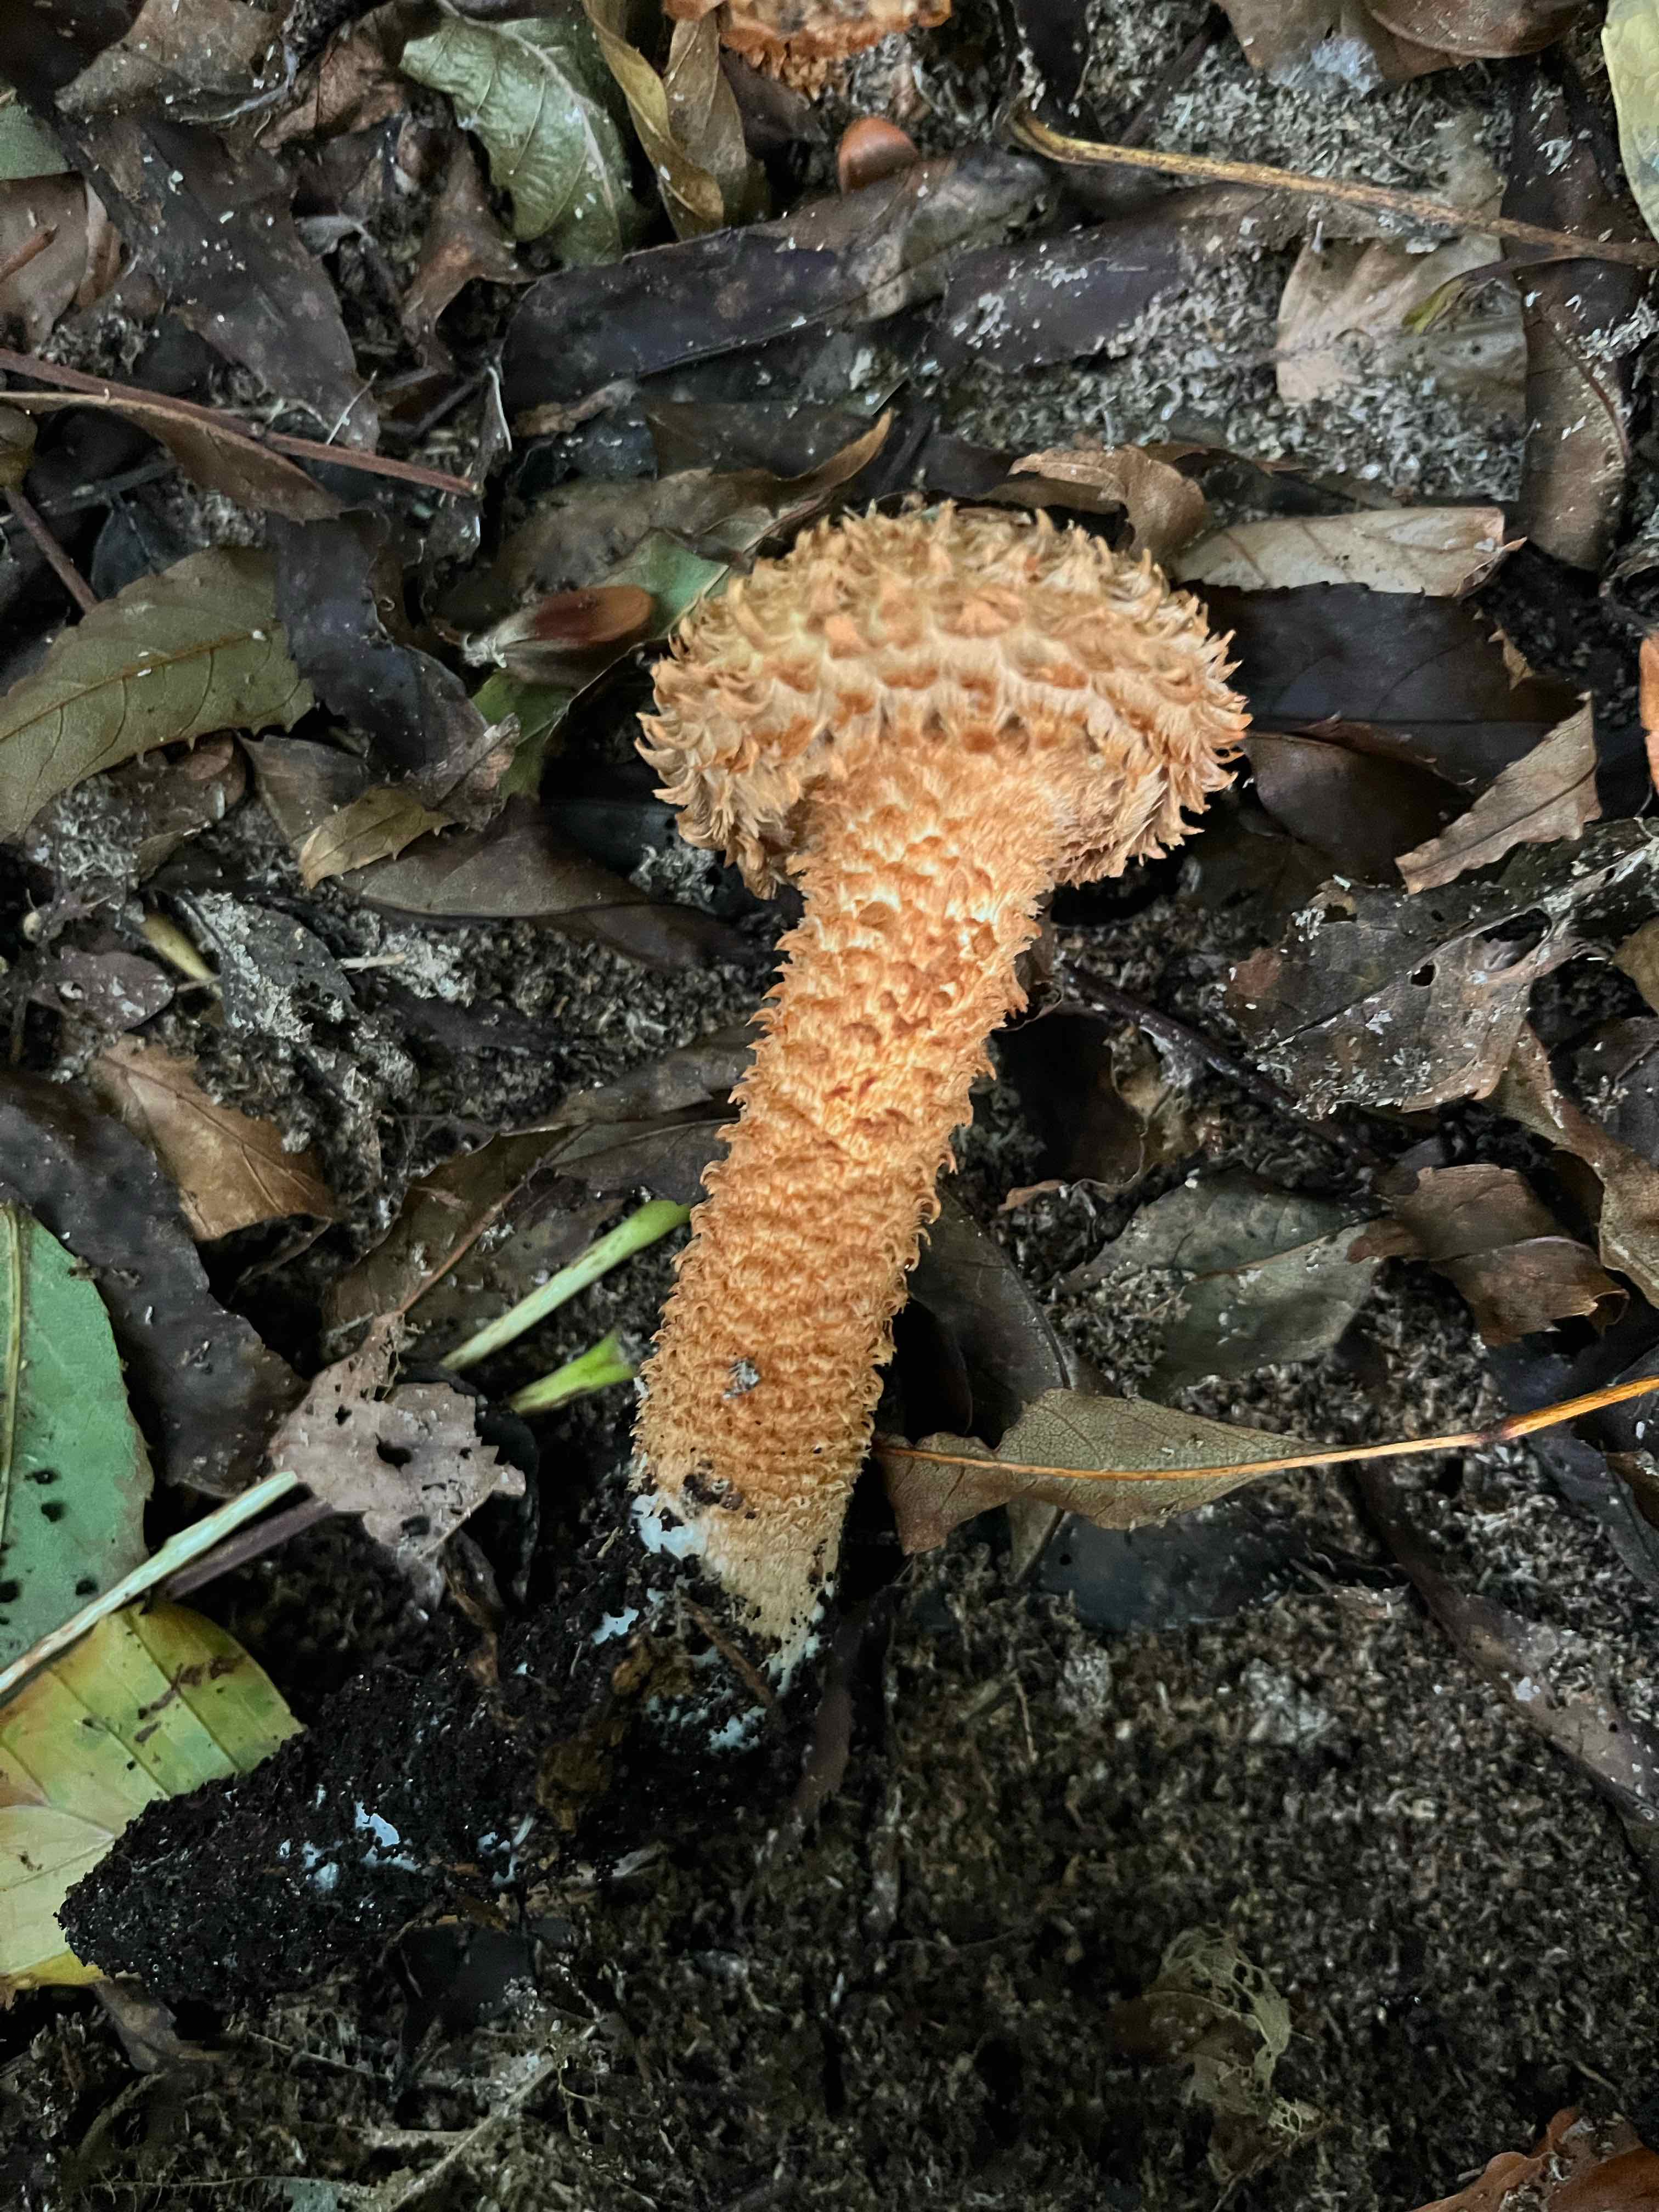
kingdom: Fungi
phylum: Basidiomycota
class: Agaricomycetes
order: Agaricales
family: Strophariaceae
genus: Pholiota
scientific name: Pholiota squarrosa
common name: krumskællet skælhat
